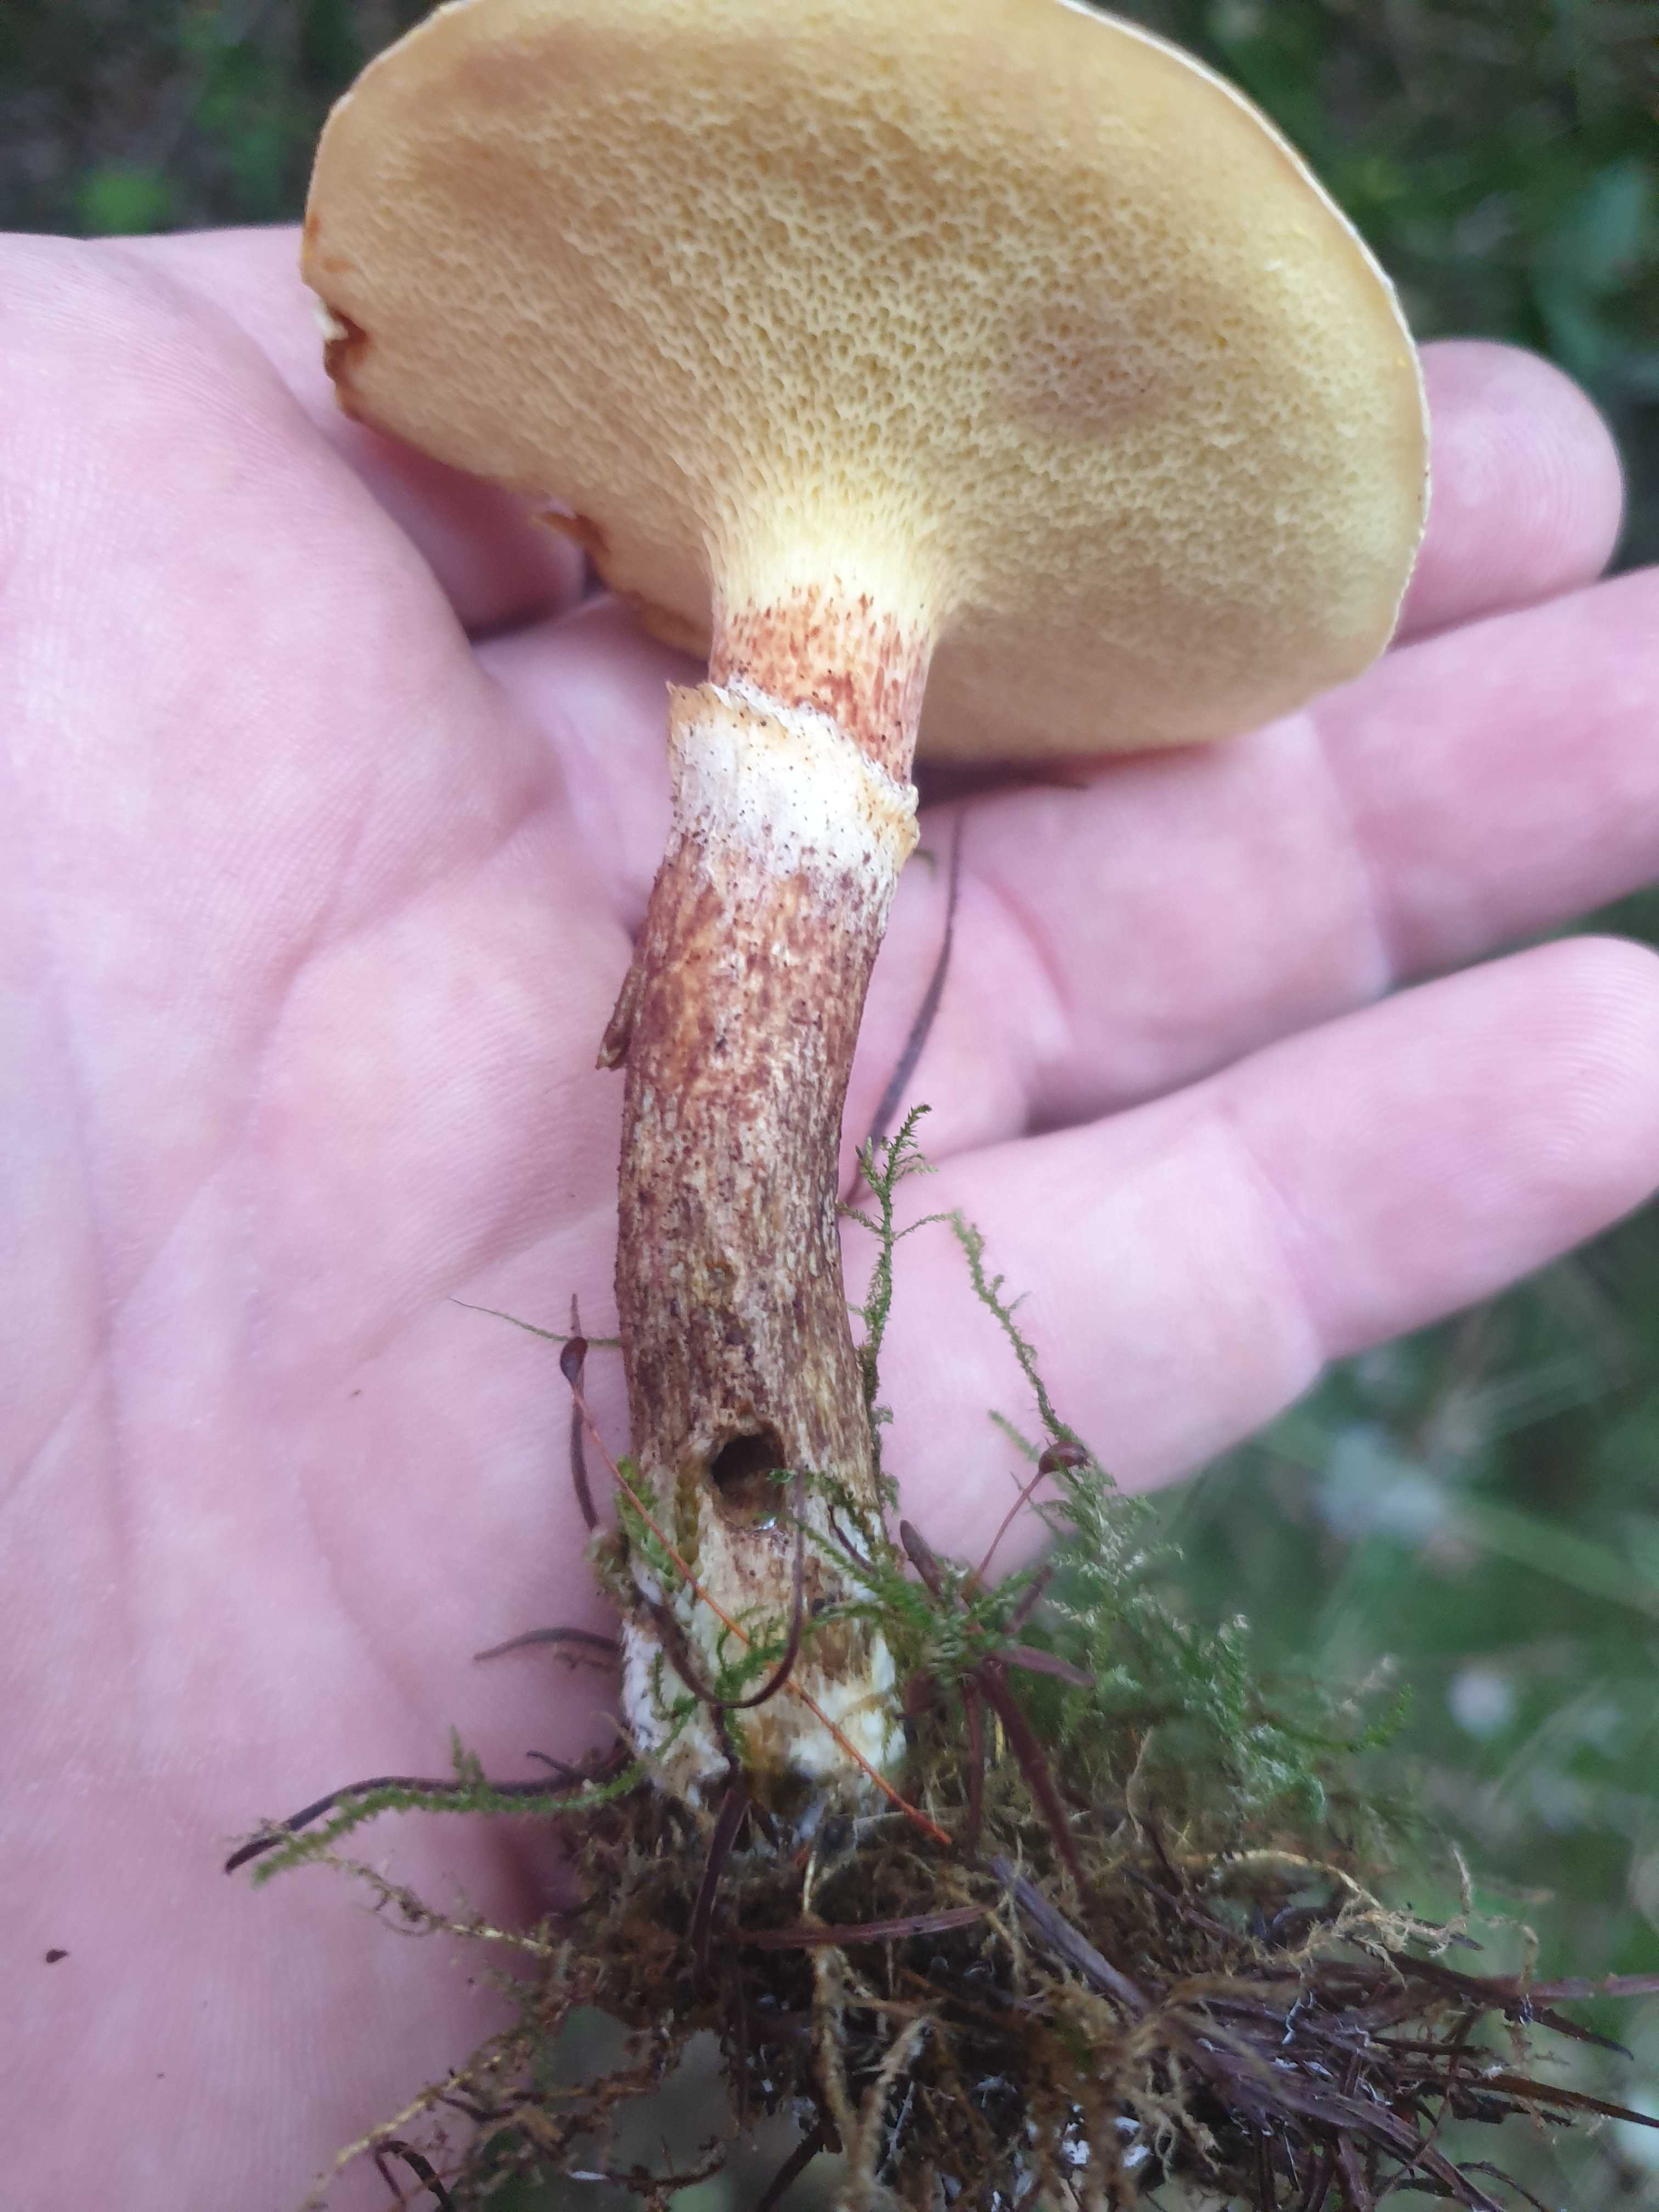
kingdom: Fungi
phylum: Basidiomycota
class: Agaricomycetes
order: Boletales
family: Suillaceae
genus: Suillus
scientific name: Suillus grevillei
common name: lærke-slimrørhat
